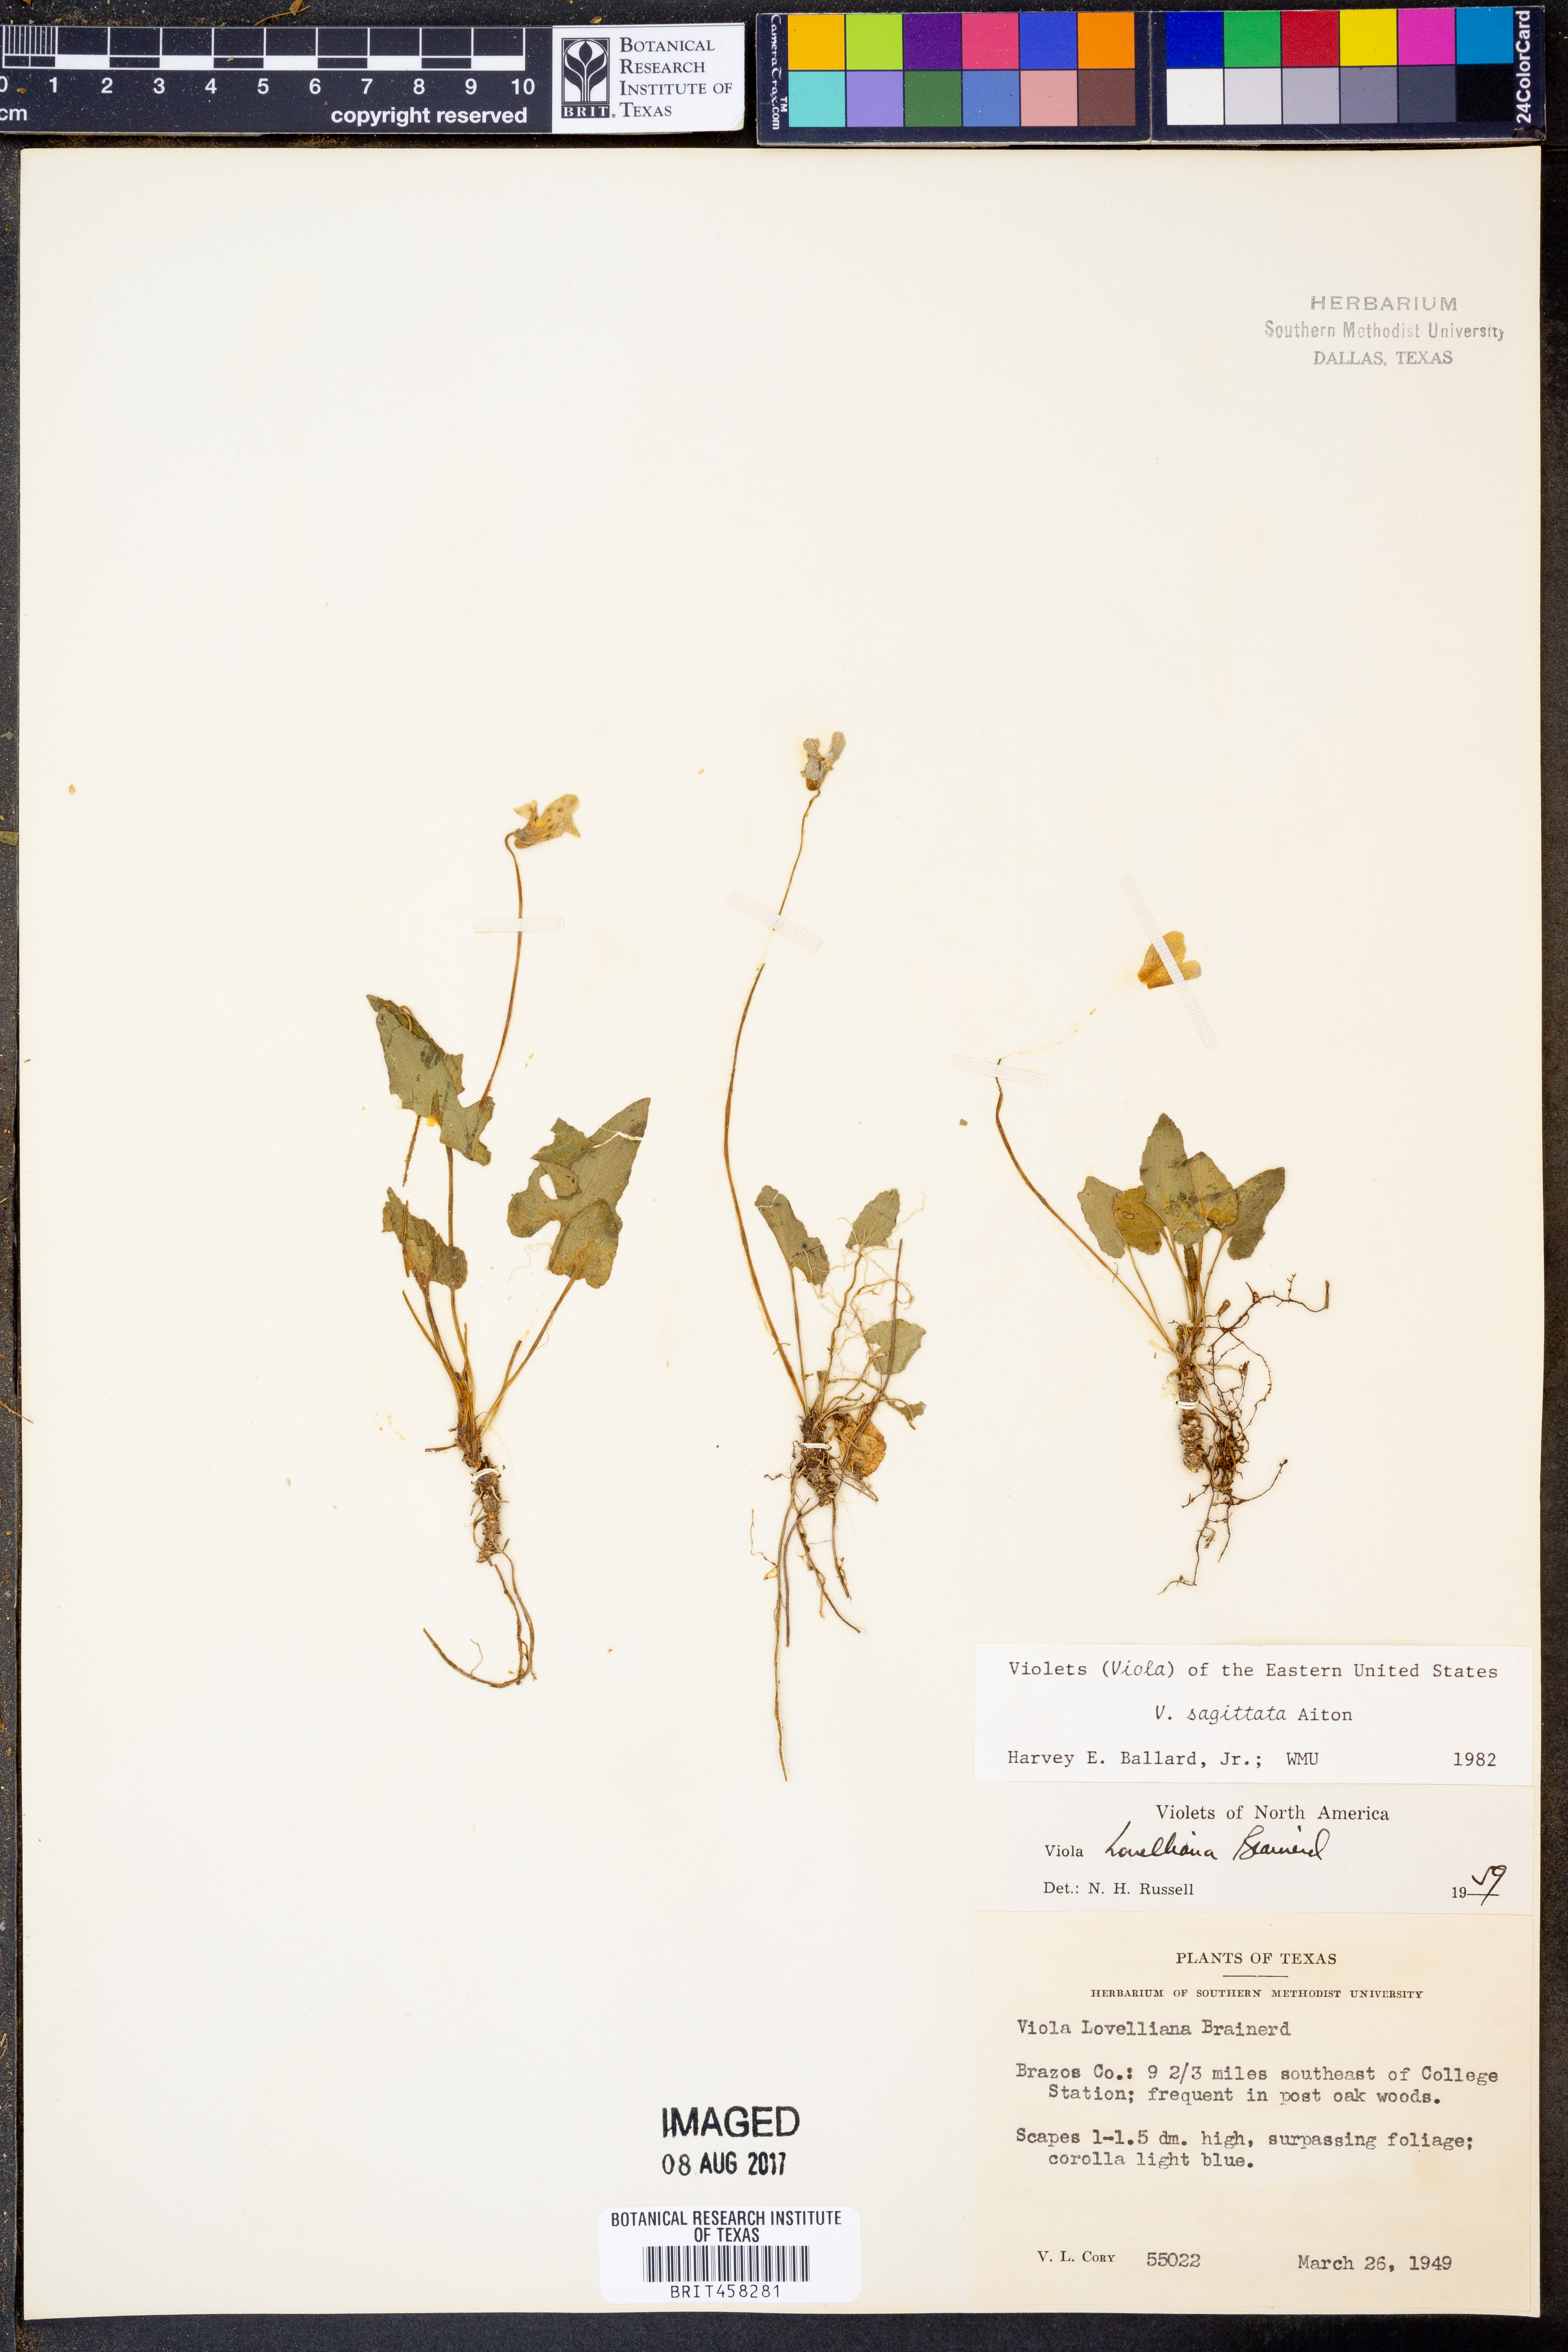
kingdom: Plantae
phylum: Tracheophyta
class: Magnoliopsida
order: Malpighiales
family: Violaceae
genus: Viola
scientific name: Viola sagittata
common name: Arrowhead violet
